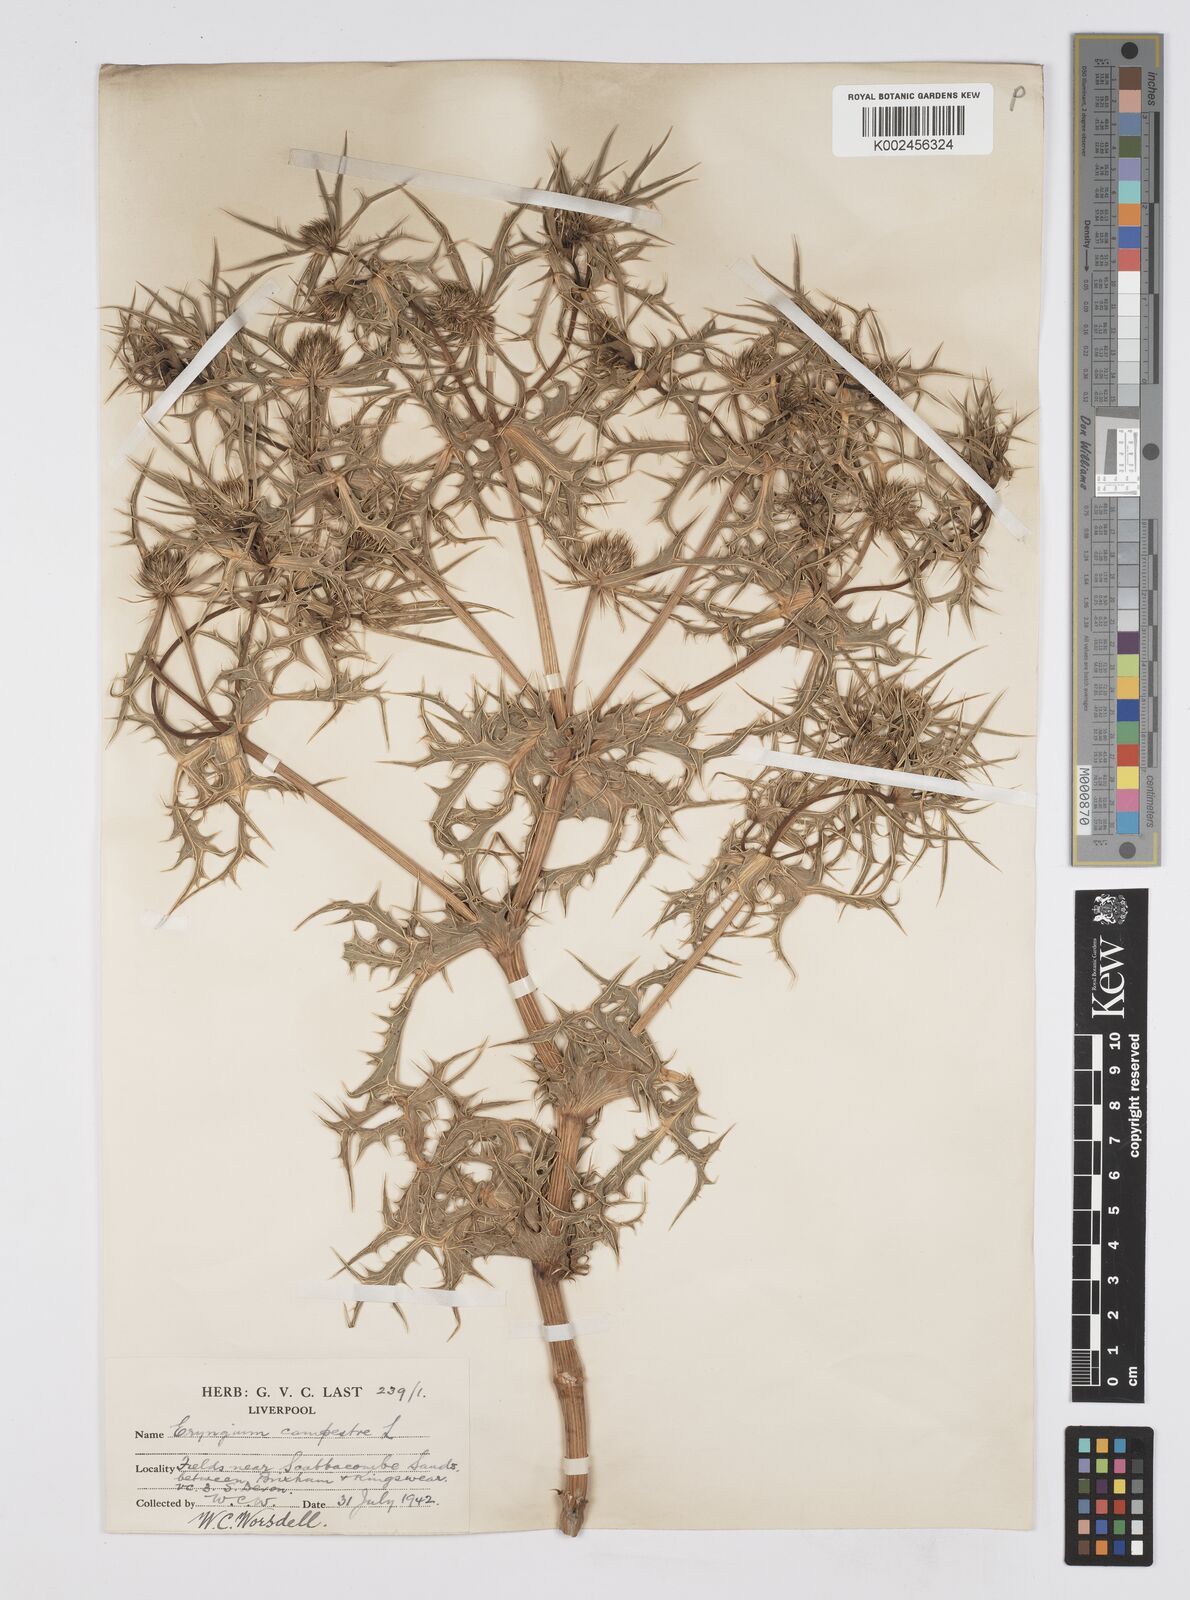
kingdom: Plantae
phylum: Tracheophyta
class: Magnoliopsida
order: Apiales
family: Apiaceae
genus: Eryngium
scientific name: Eryngium campestre
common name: Field eryngo
